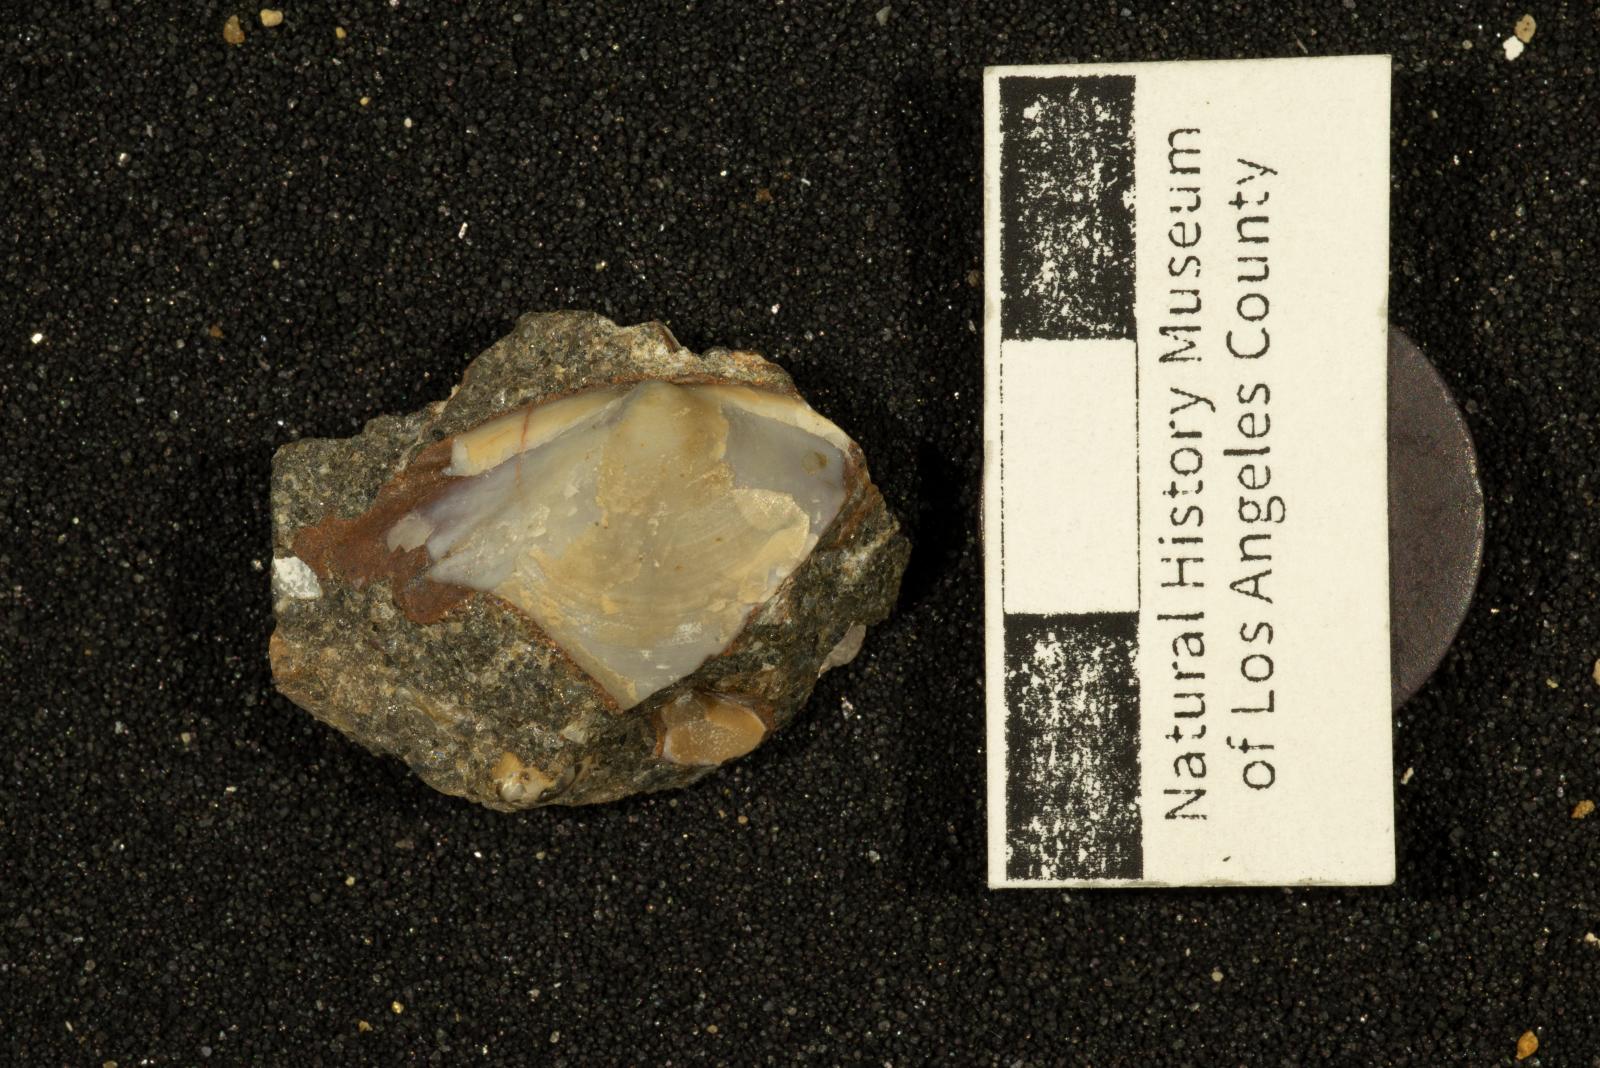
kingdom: Animalia
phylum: Mollusca
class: Bivalvia
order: Venerida
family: Mactridae
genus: Willimactra
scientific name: Willimactra putida
